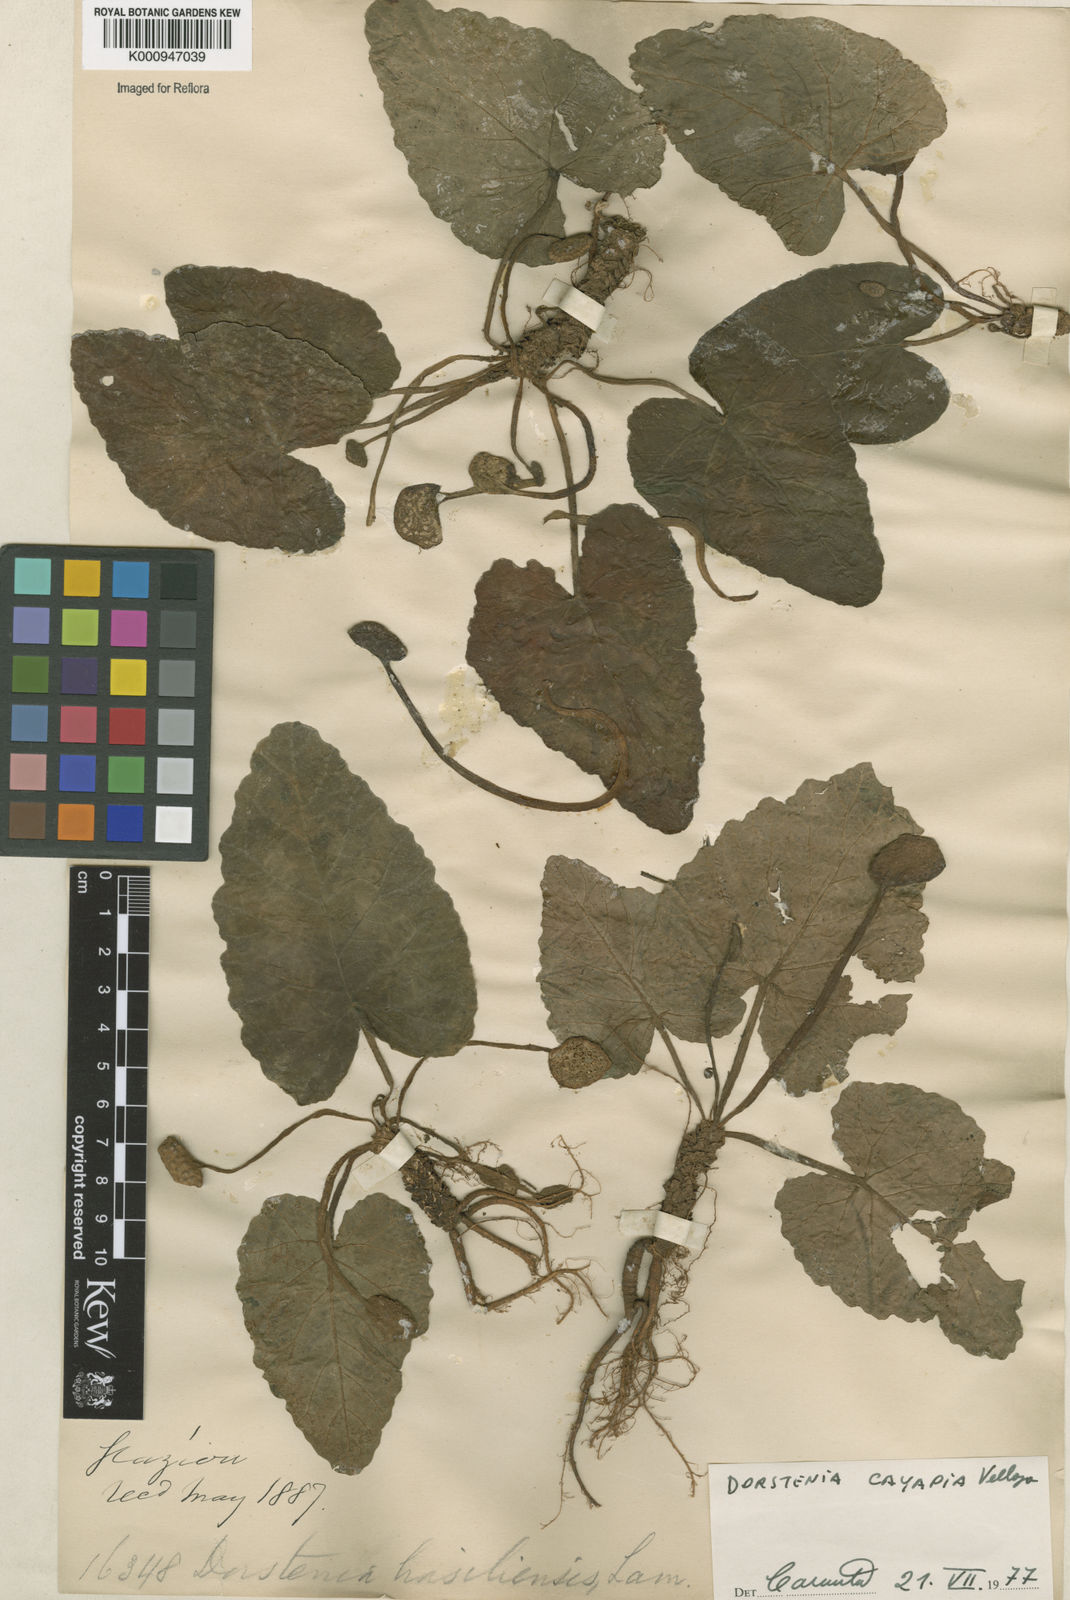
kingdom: Plantae
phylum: Tracheophyta
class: Magnoliopsida
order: Rosales
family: Moraceae
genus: Dorstenia
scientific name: Dorstenia cayapia
